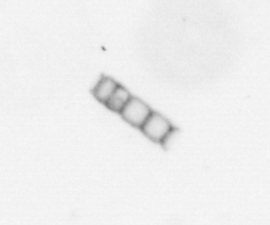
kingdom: Chromista
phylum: Ochrophyta
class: Bacillariophyceae
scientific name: Bacillariophyceae
